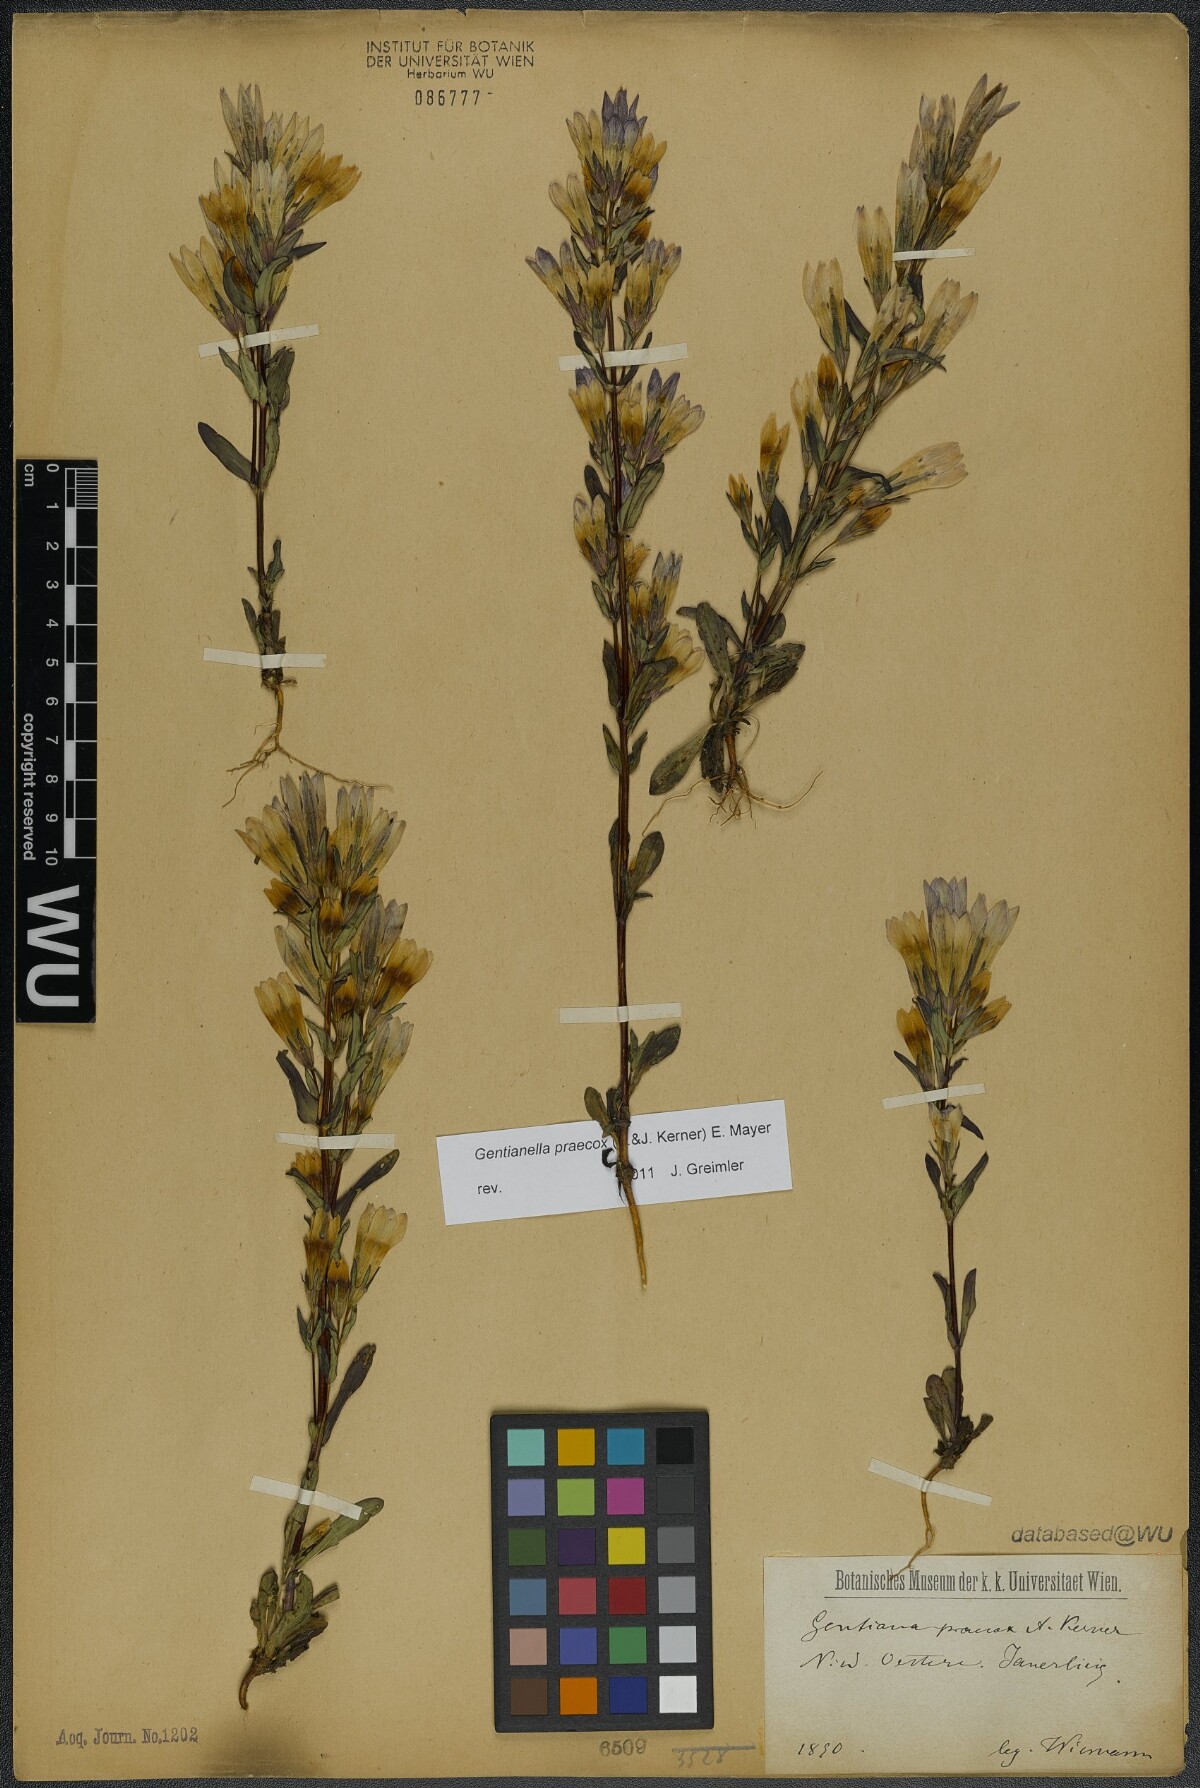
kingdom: Plantae
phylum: Tracheophyta
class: Magnoliopsida
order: Gentianales
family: Gentianaceae
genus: Gentianella
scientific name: Gentianella praecox
